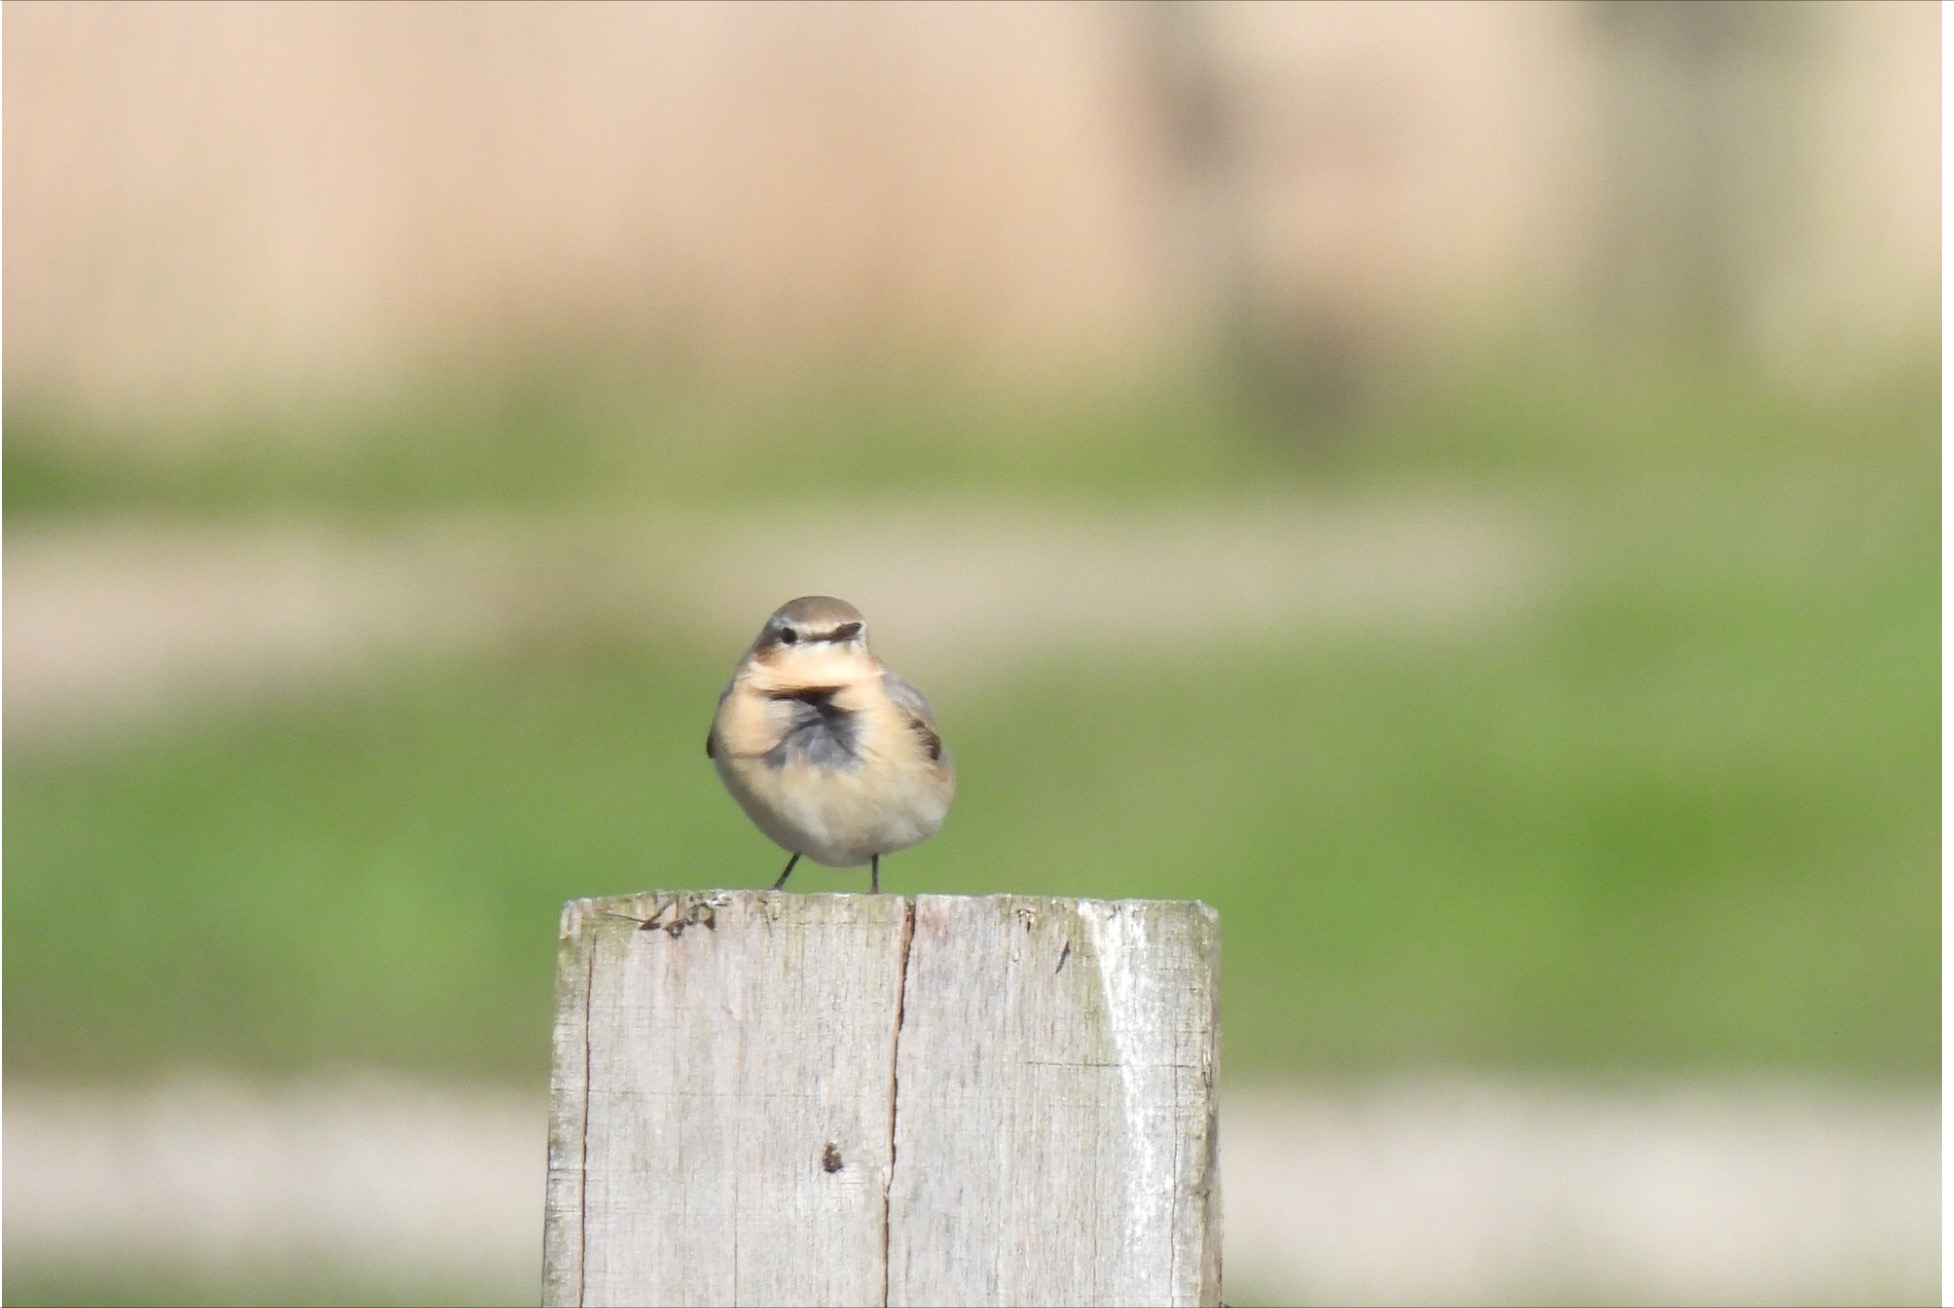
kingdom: Animalia
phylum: Chordata
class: Aves
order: Passeriformes
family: Muscicapidae
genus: Oenanthe
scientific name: Oenanthe oenanthe
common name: Stenpikker
